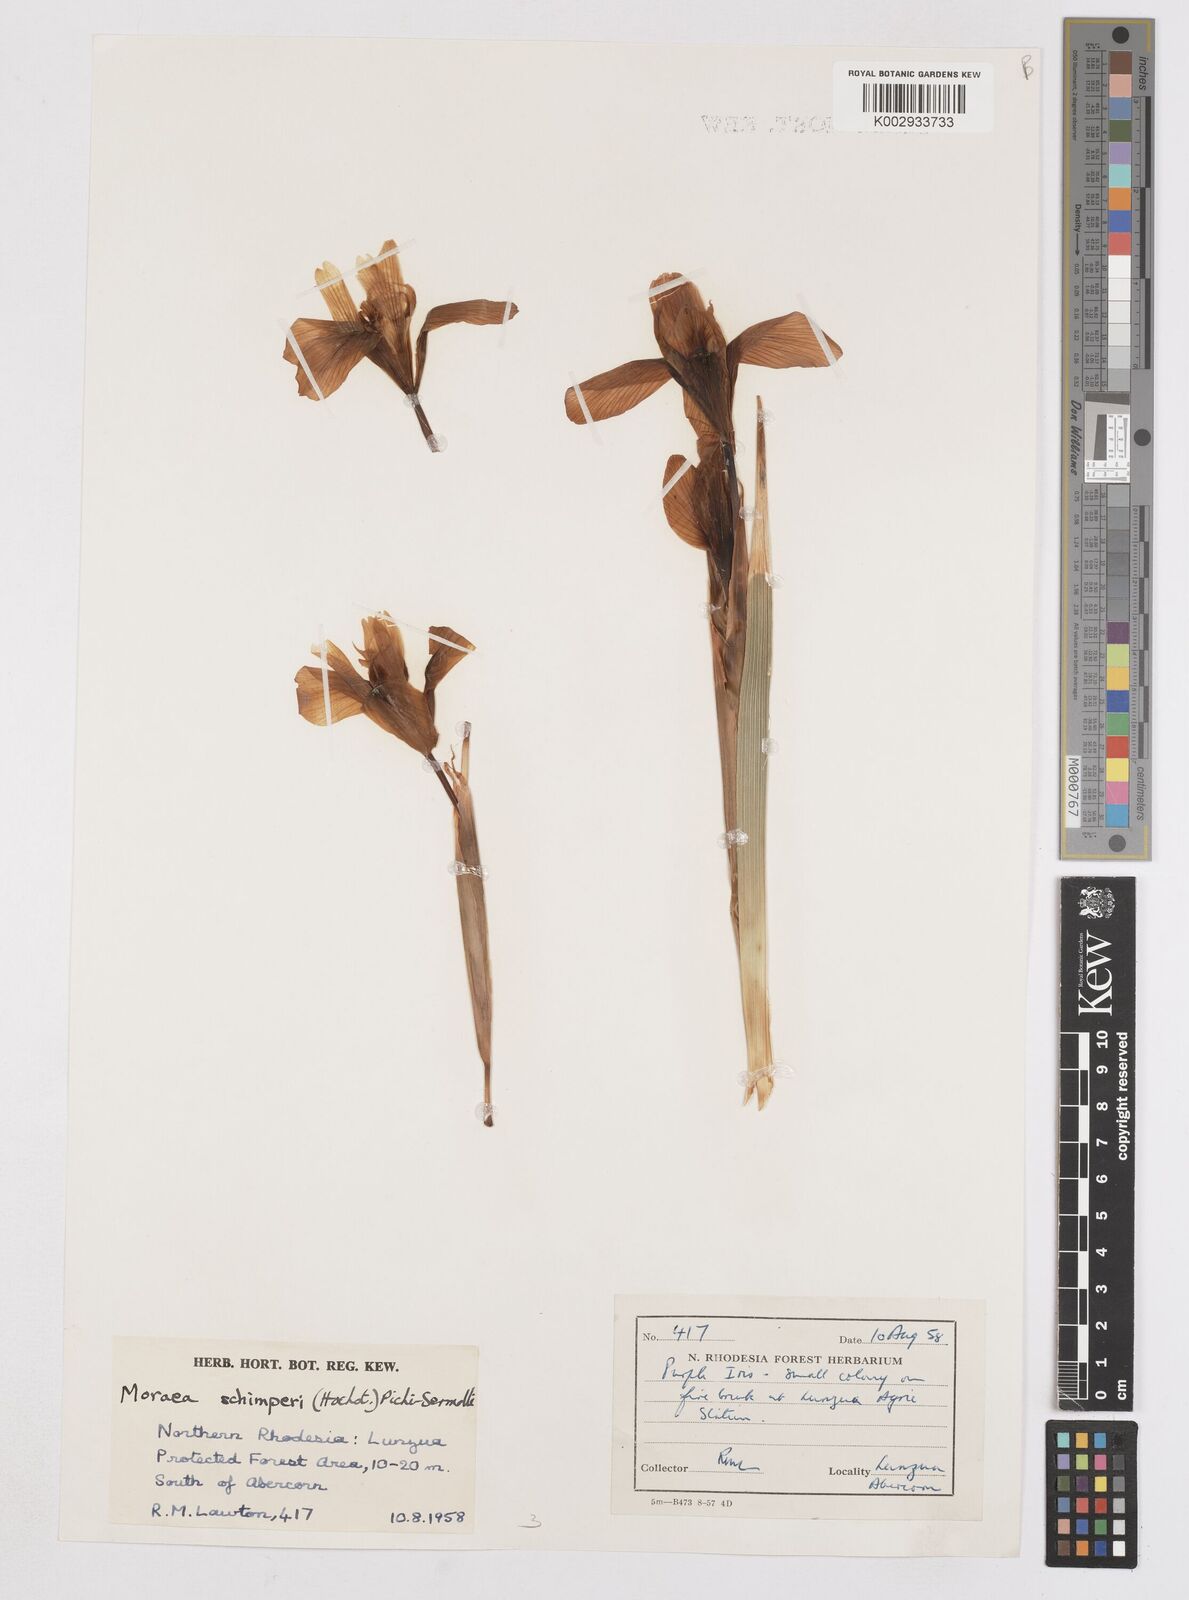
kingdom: Plantae
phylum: Tracheophyta
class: Liliopsida
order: Asparagales
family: Iridaceae
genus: Moraea
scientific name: Moraea schimperi
